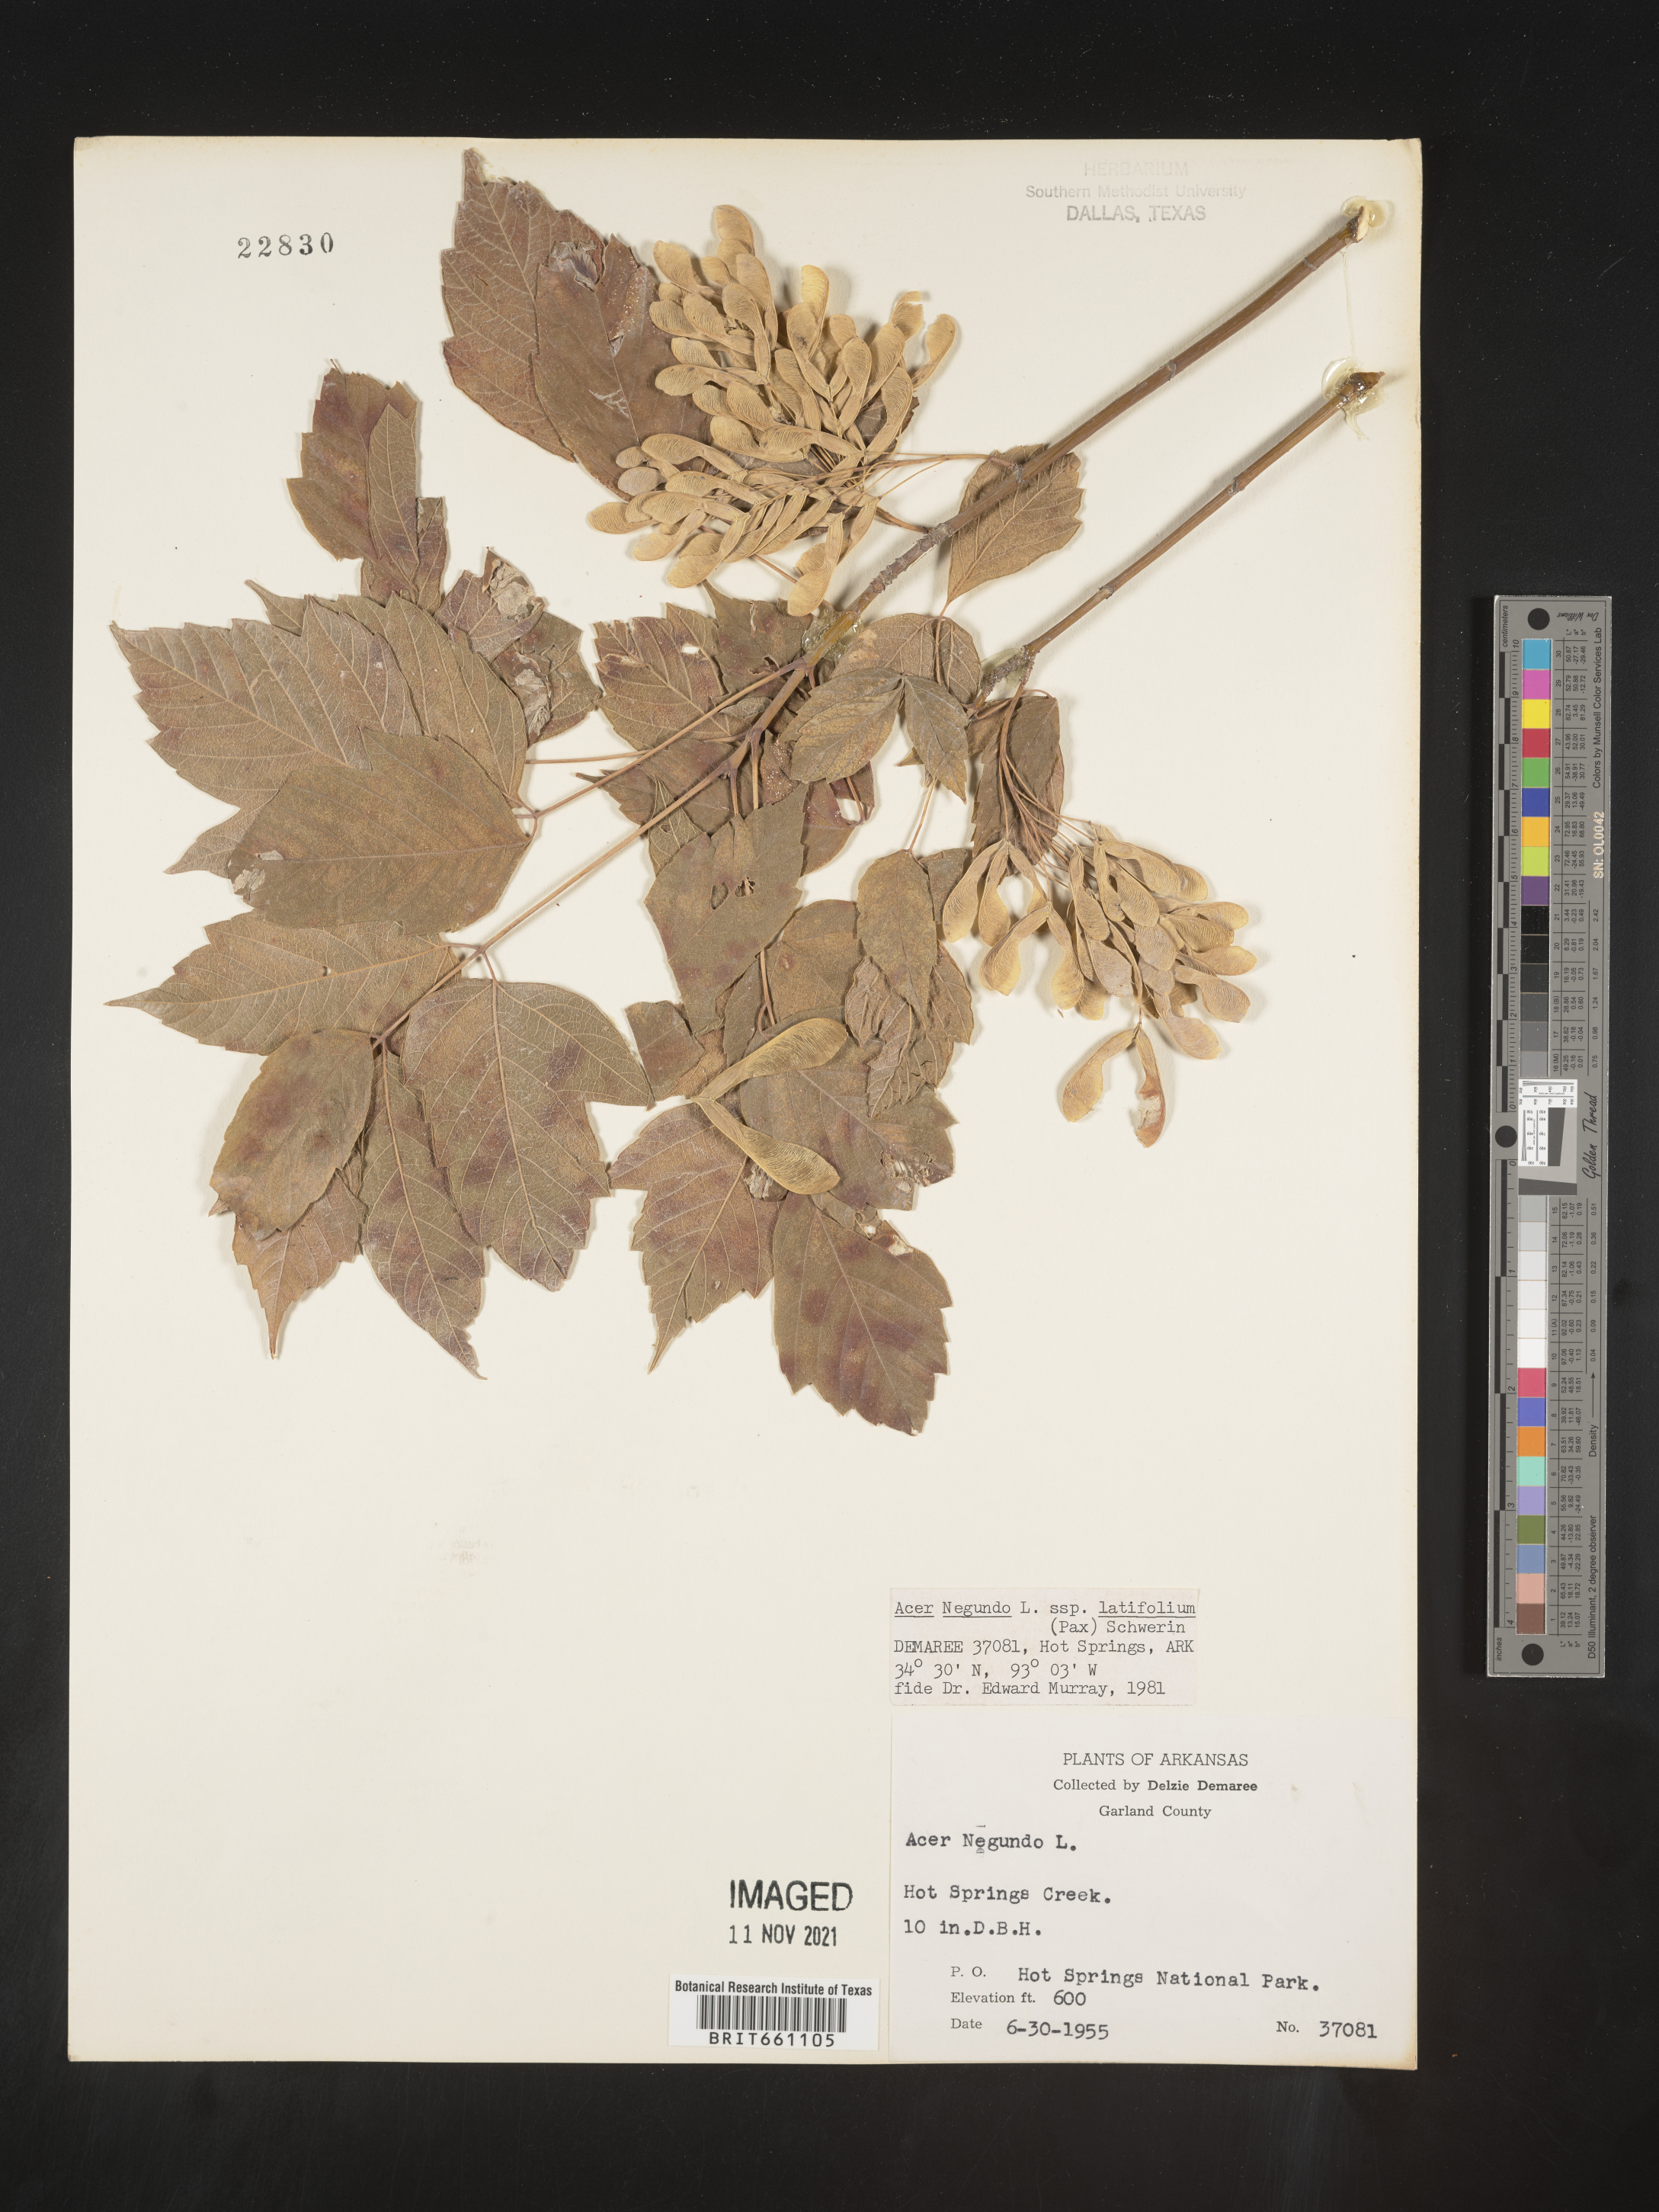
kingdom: Plantae
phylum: Tracheophyta
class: Magnoliopsida
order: Sapindales
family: Sapindaceae
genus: Acer
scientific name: Acer negundo
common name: Ashleaf maple
